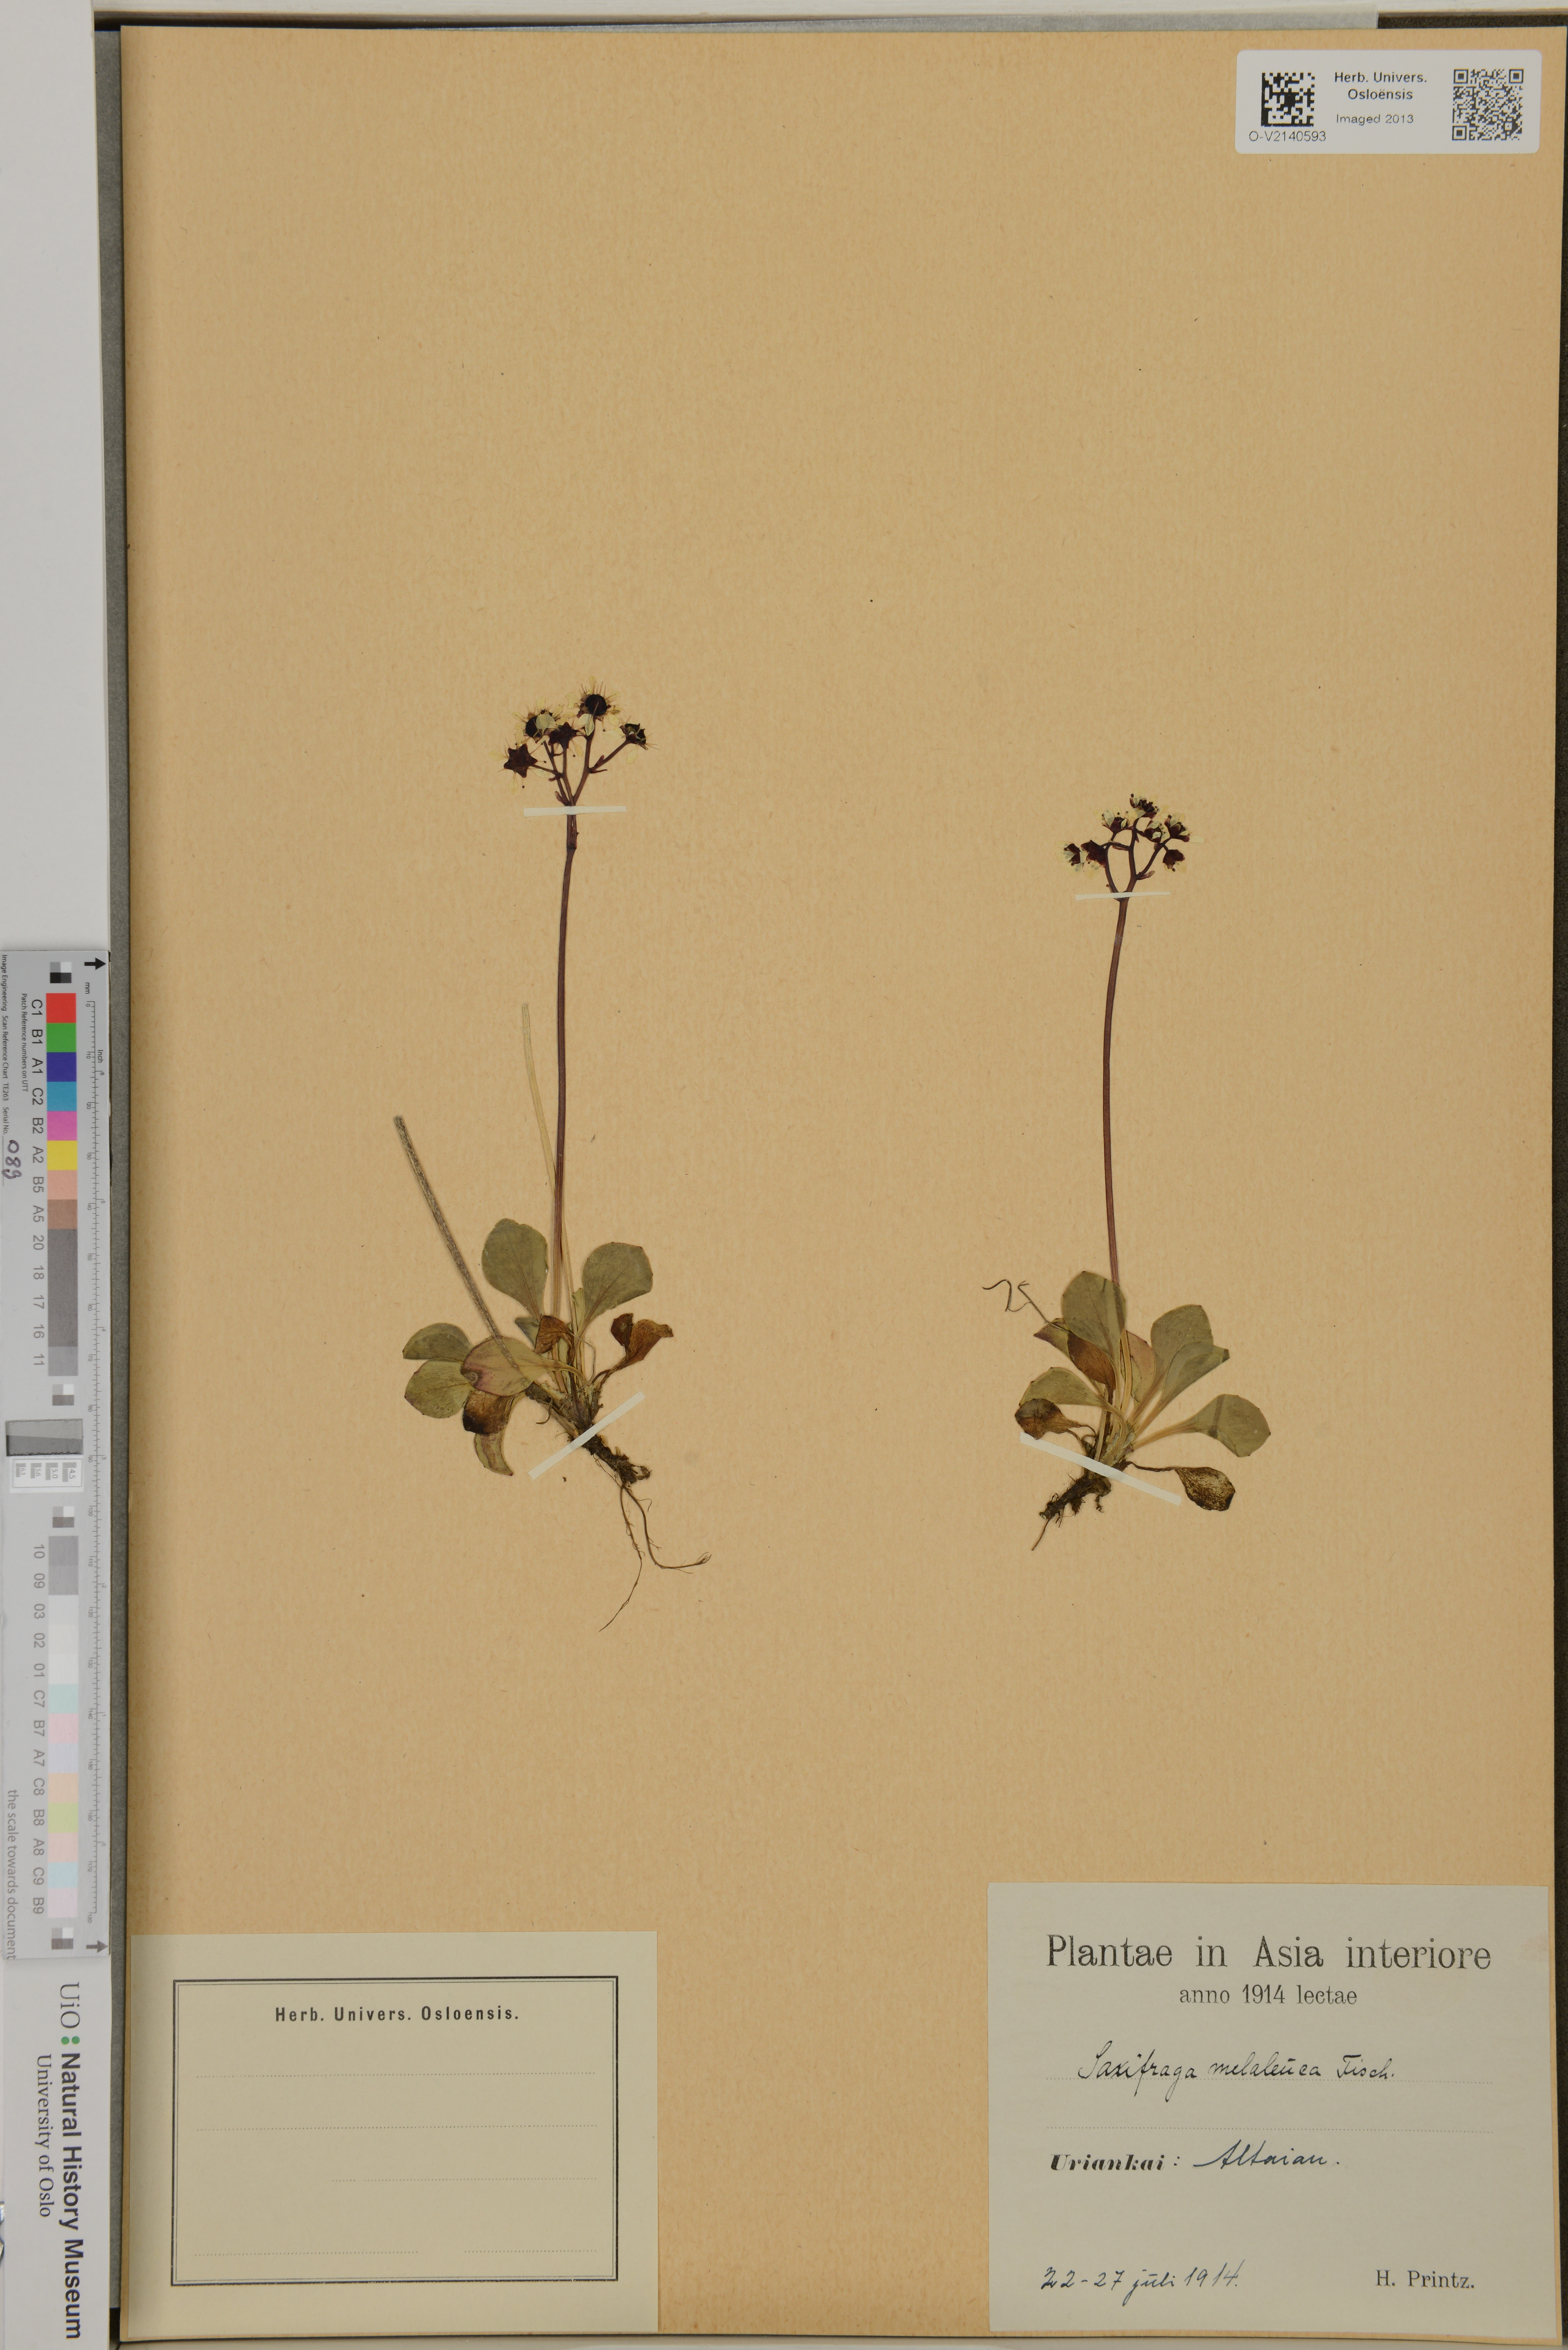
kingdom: Plantae
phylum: Tracheophyta
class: Magnoliopsida
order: Saxifragales
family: Saxifragaceae
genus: Micranthes
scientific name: Micranthes melaleuca
